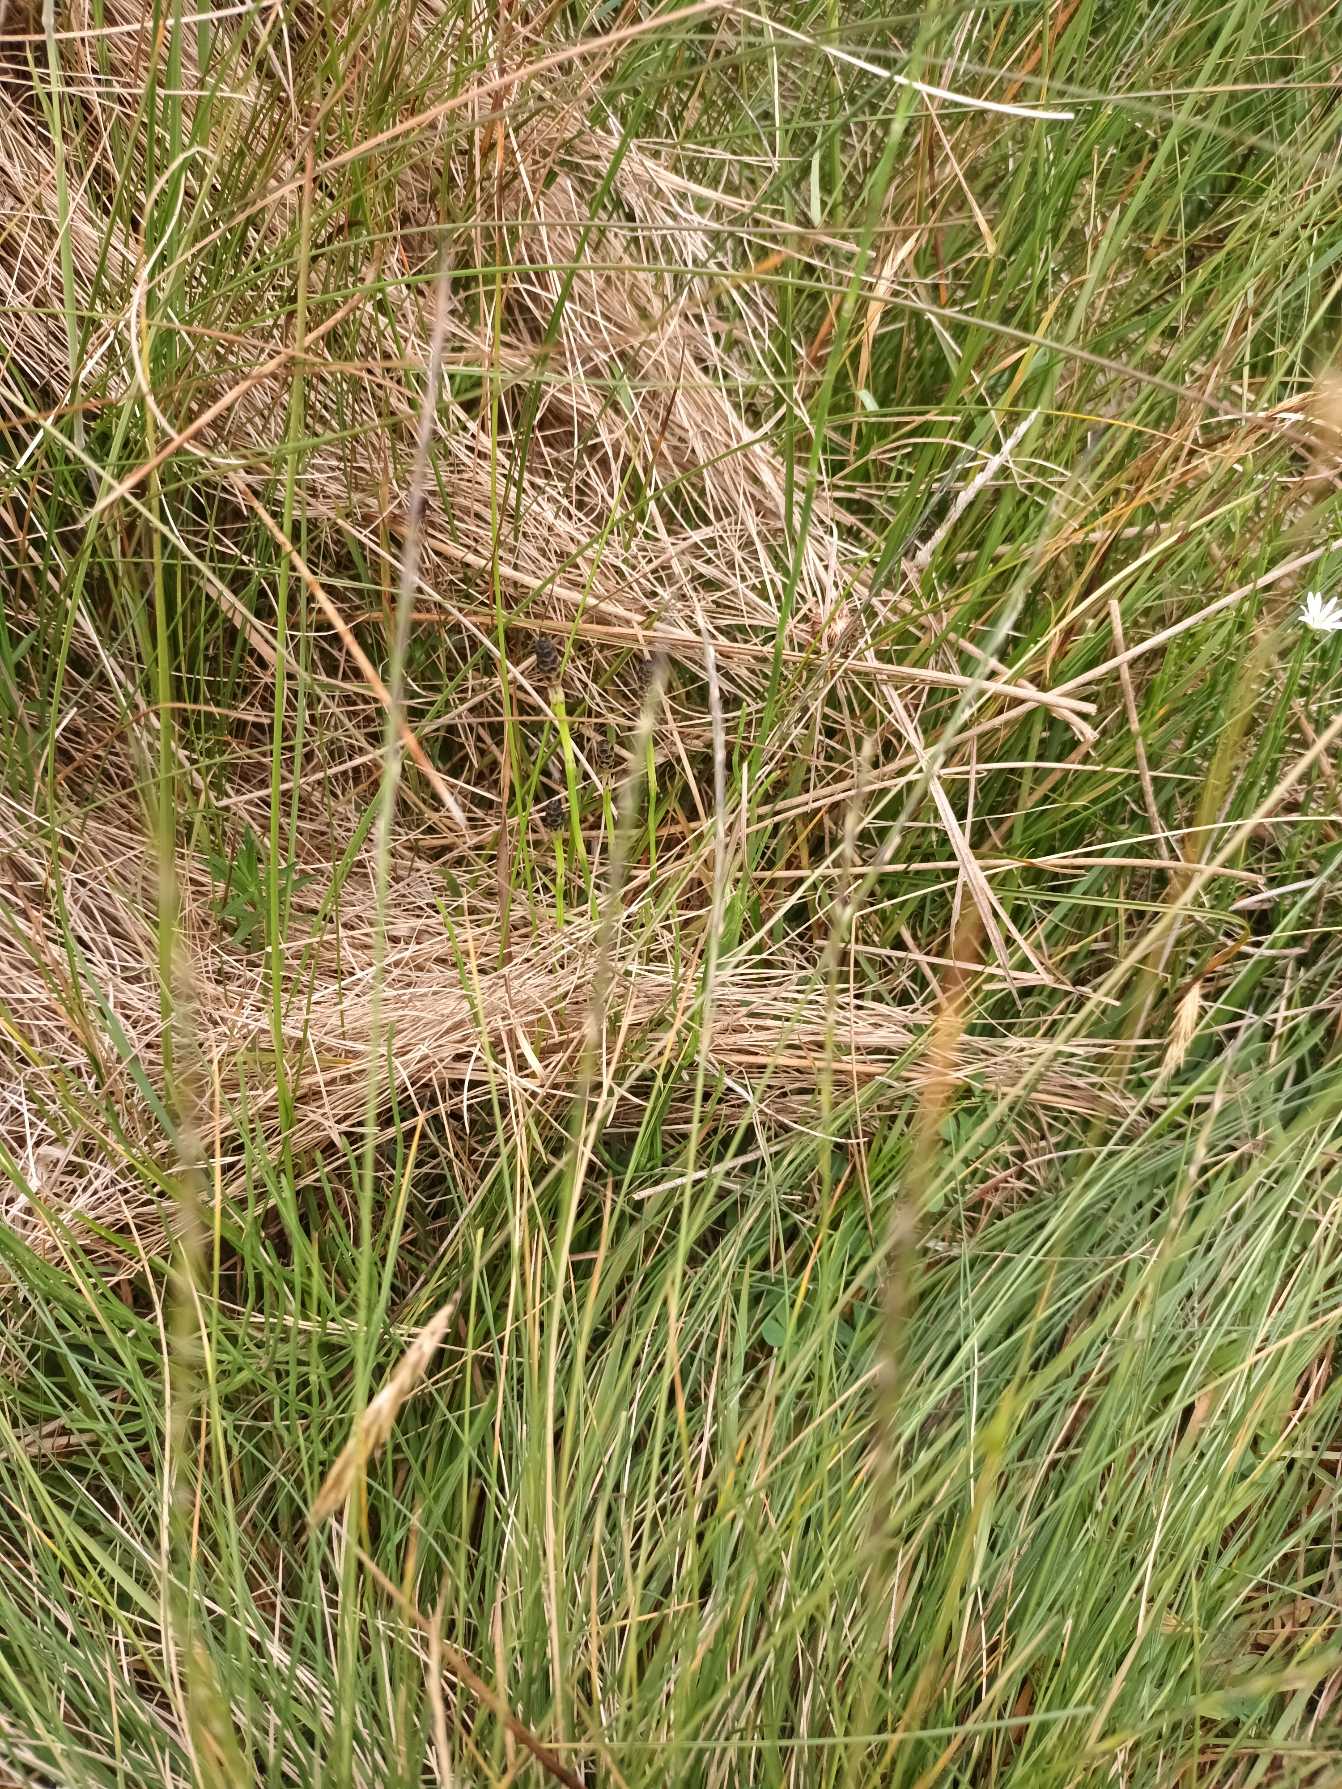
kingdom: Plantae
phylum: Tracheophyta
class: Liliopsida
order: Poales
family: Poaceae
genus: Nardus
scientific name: Nardus stricta
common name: Katteskæg
